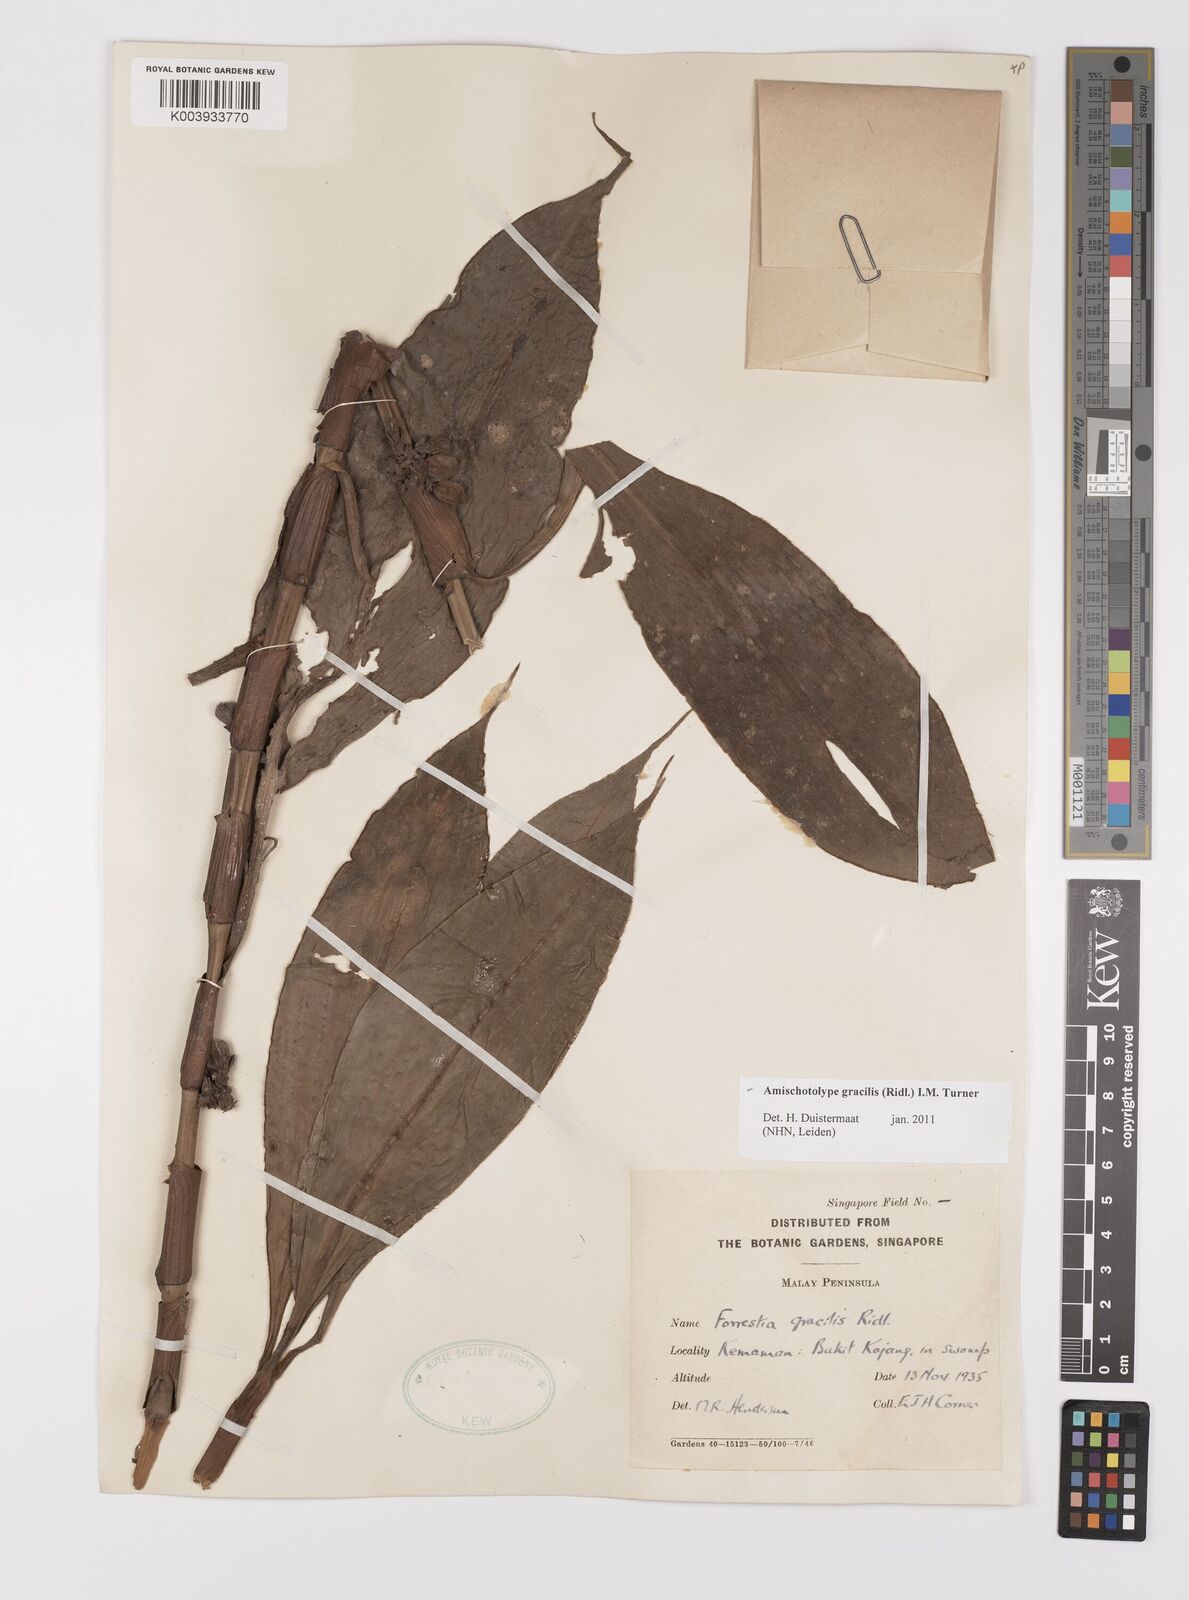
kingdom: Plantae
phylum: Tracheophyta
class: Liliopsida
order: Commelinales
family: Commelinaceae
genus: Amischotolype
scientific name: Amischotolype gracilis
